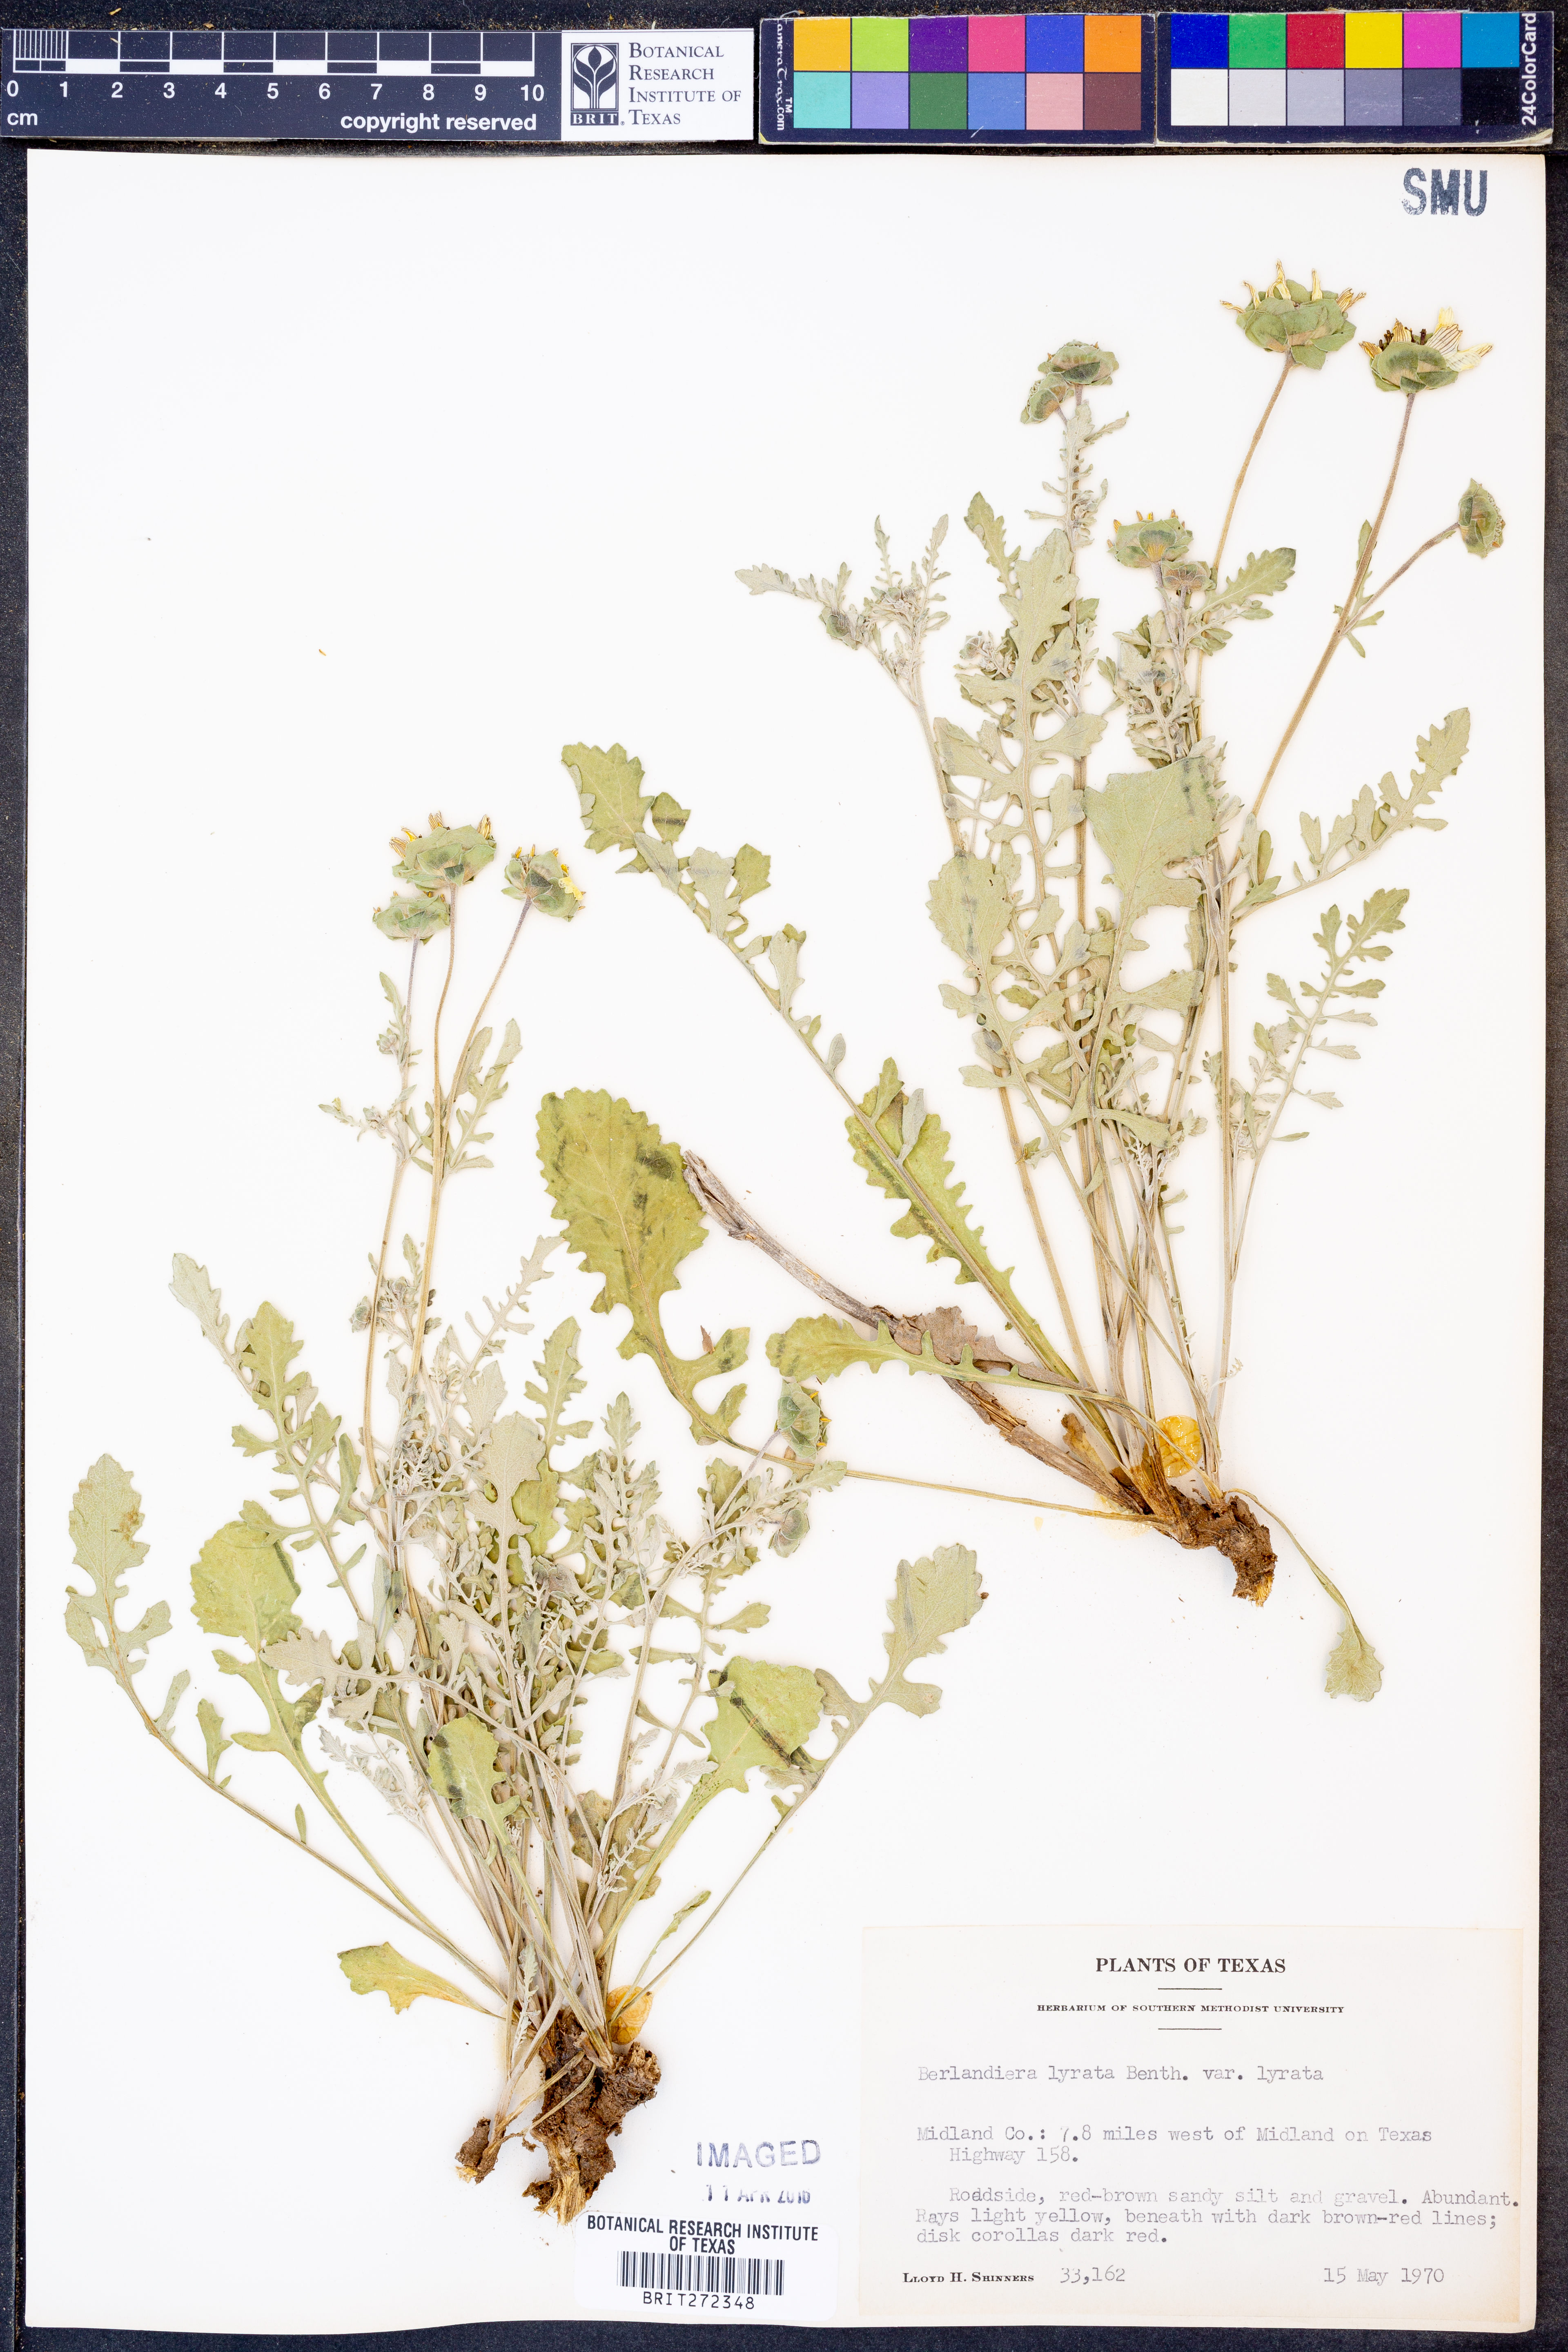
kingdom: Plantae
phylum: Tracheophyta
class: Magnoliopsida
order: Asterales
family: Asteraceae
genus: Berlandiera
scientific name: Berlandiera lyrata
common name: Chocolate-flower
